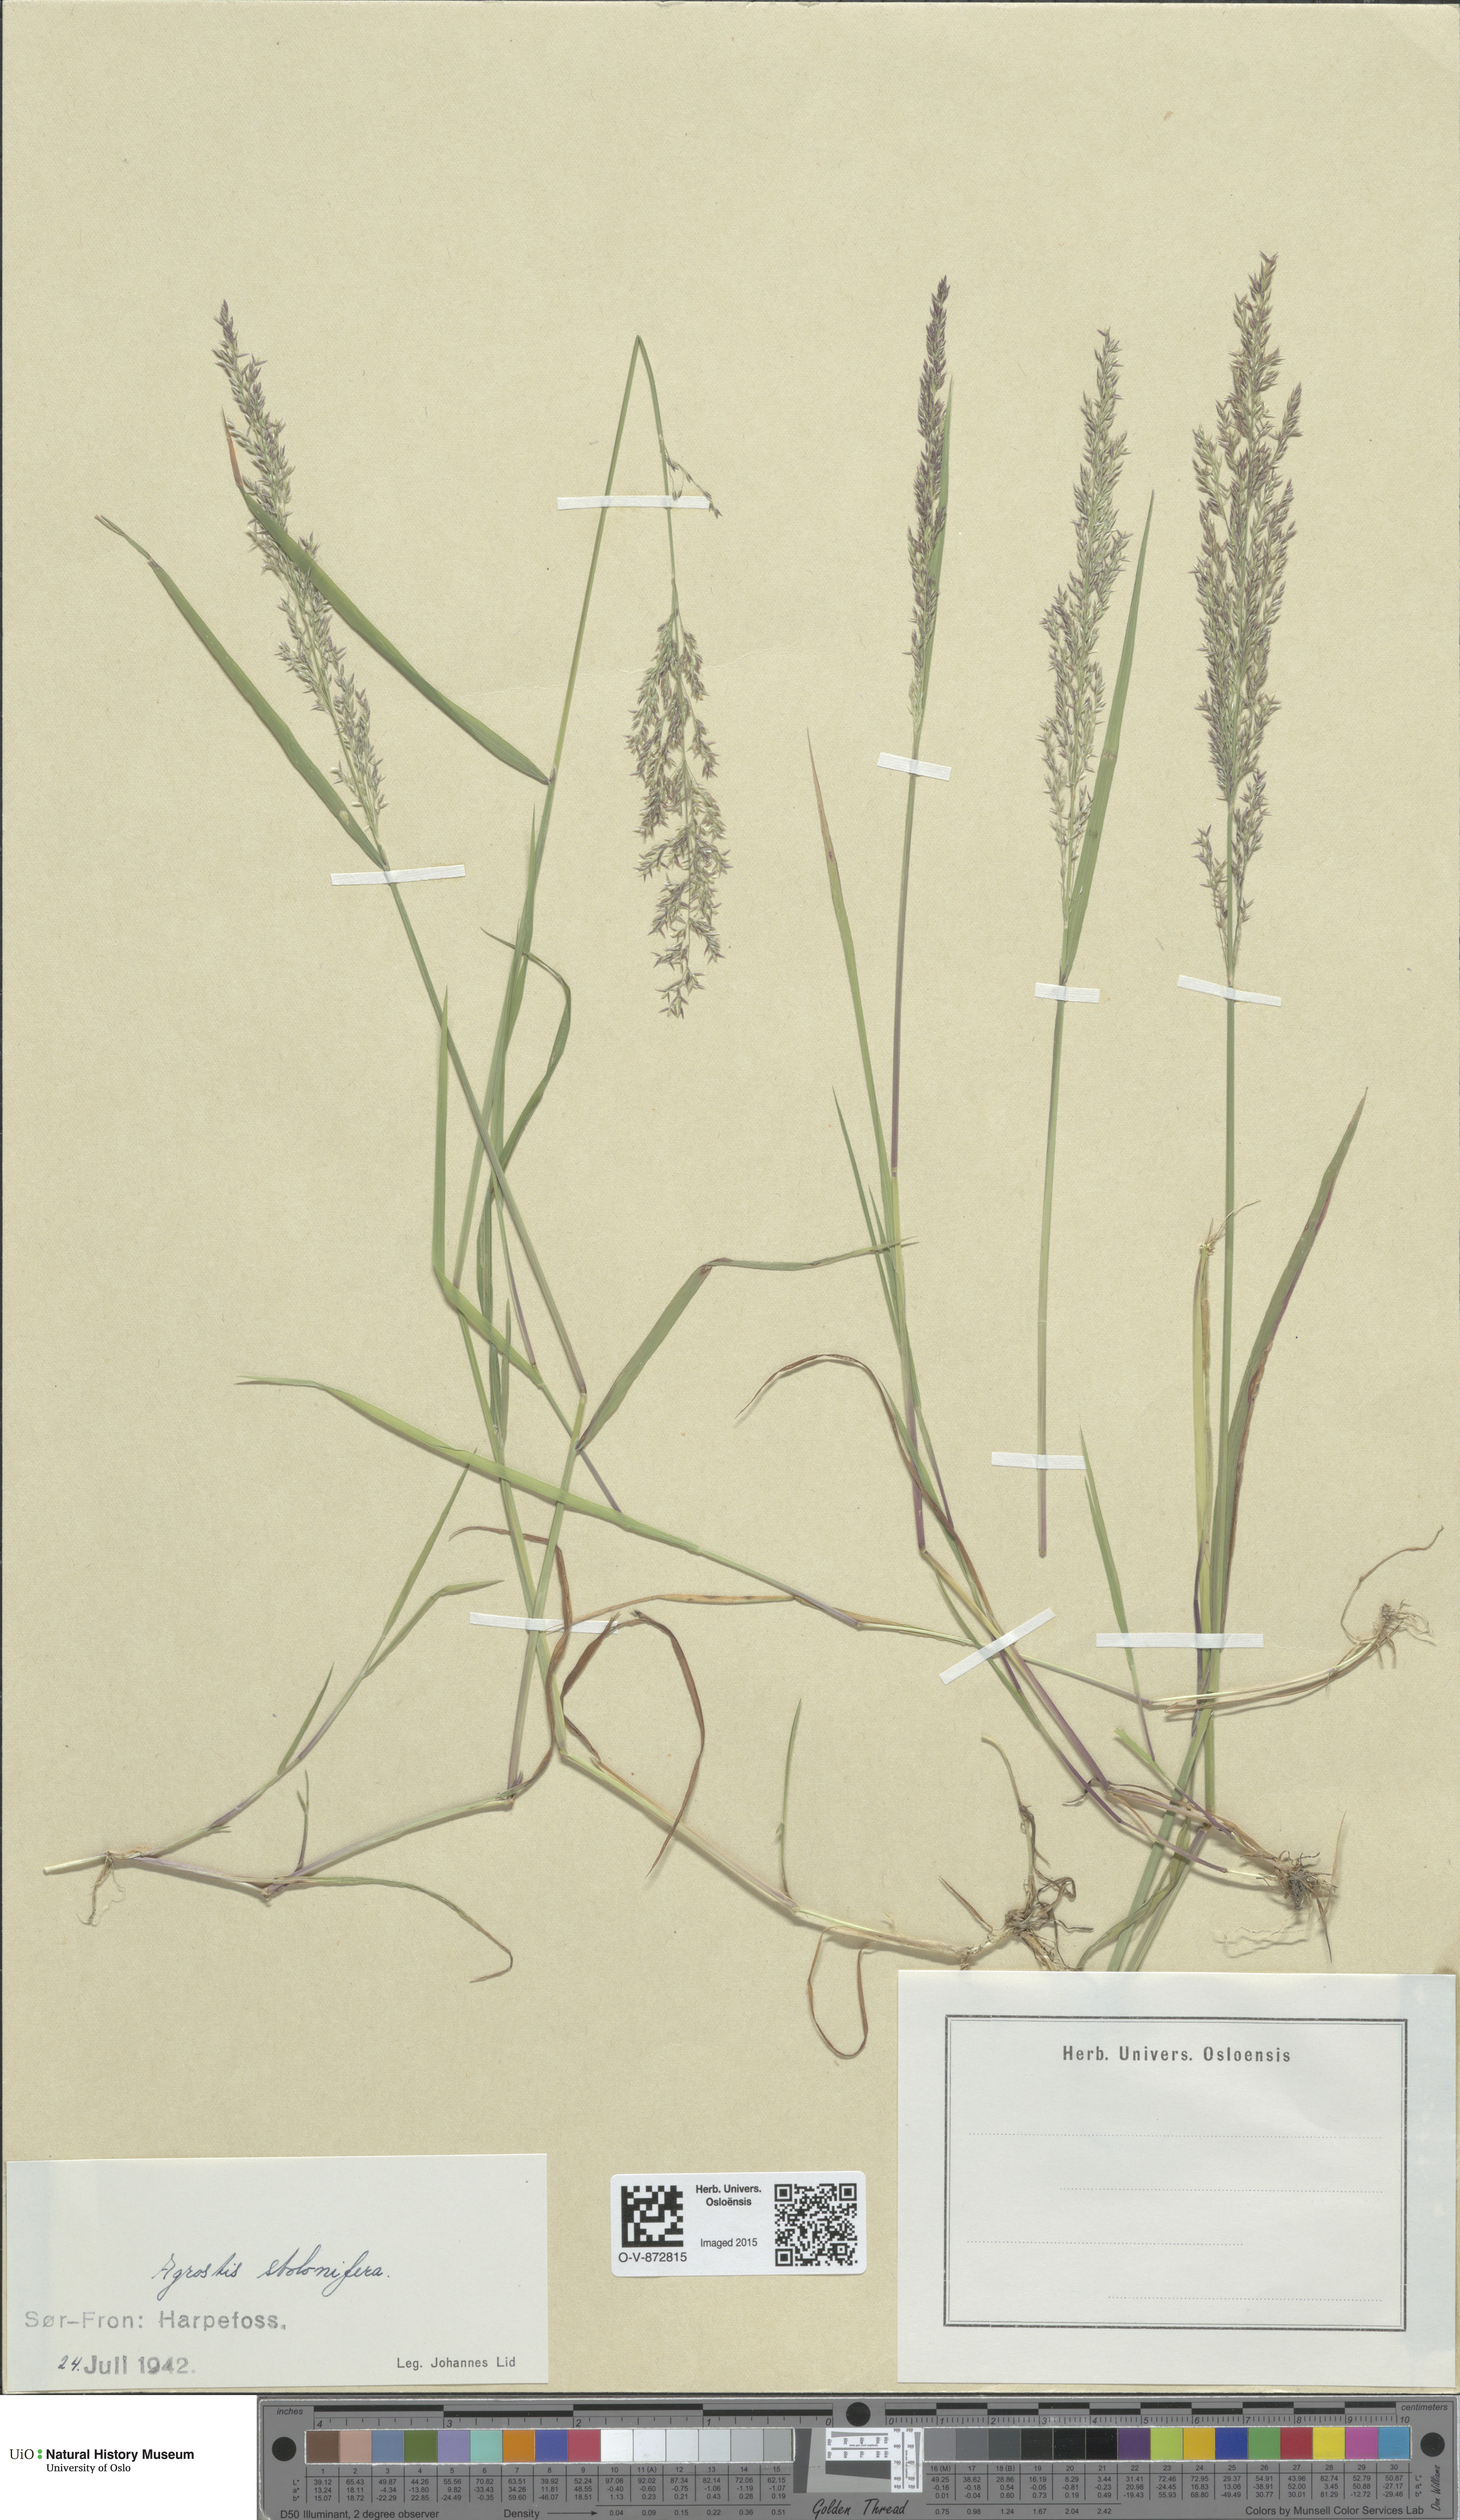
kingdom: Plantae
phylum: Tracheophyta
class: Liliopsida
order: Poales
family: Poaceae
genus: Agrostis
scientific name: Agrostis stolonifera
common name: Creeping bentgrass
